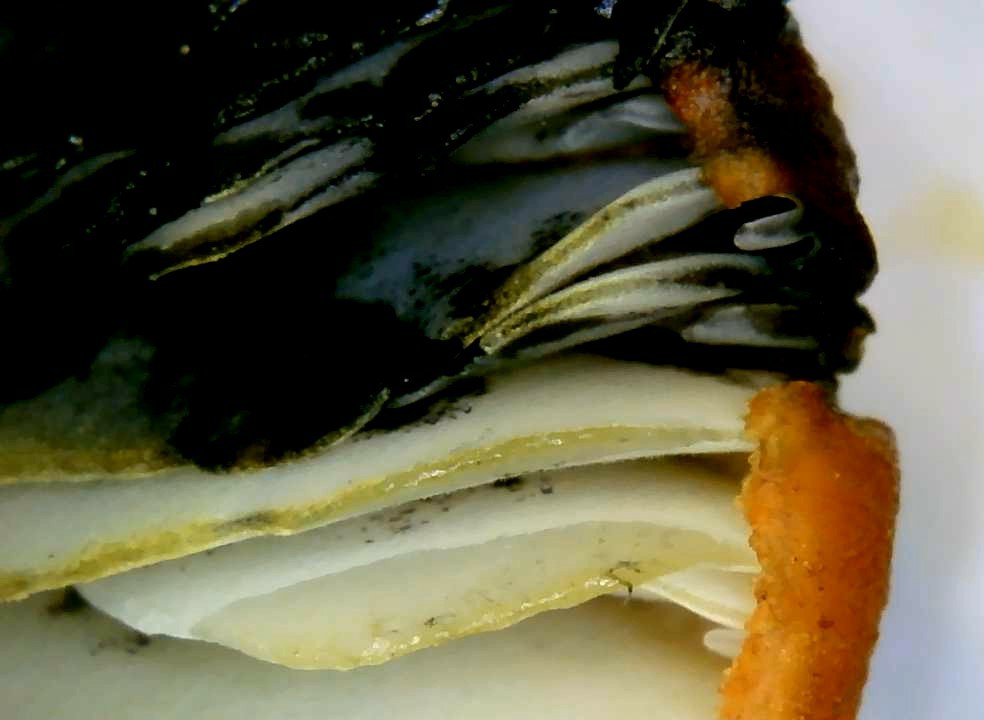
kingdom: Fungi
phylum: Basidiomycota
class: Agaricomycetes
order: Agaricales
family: Hygrophoraceae
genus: Hygrocybe
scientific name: Hygrocybe conica
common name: kegle-vokshat
